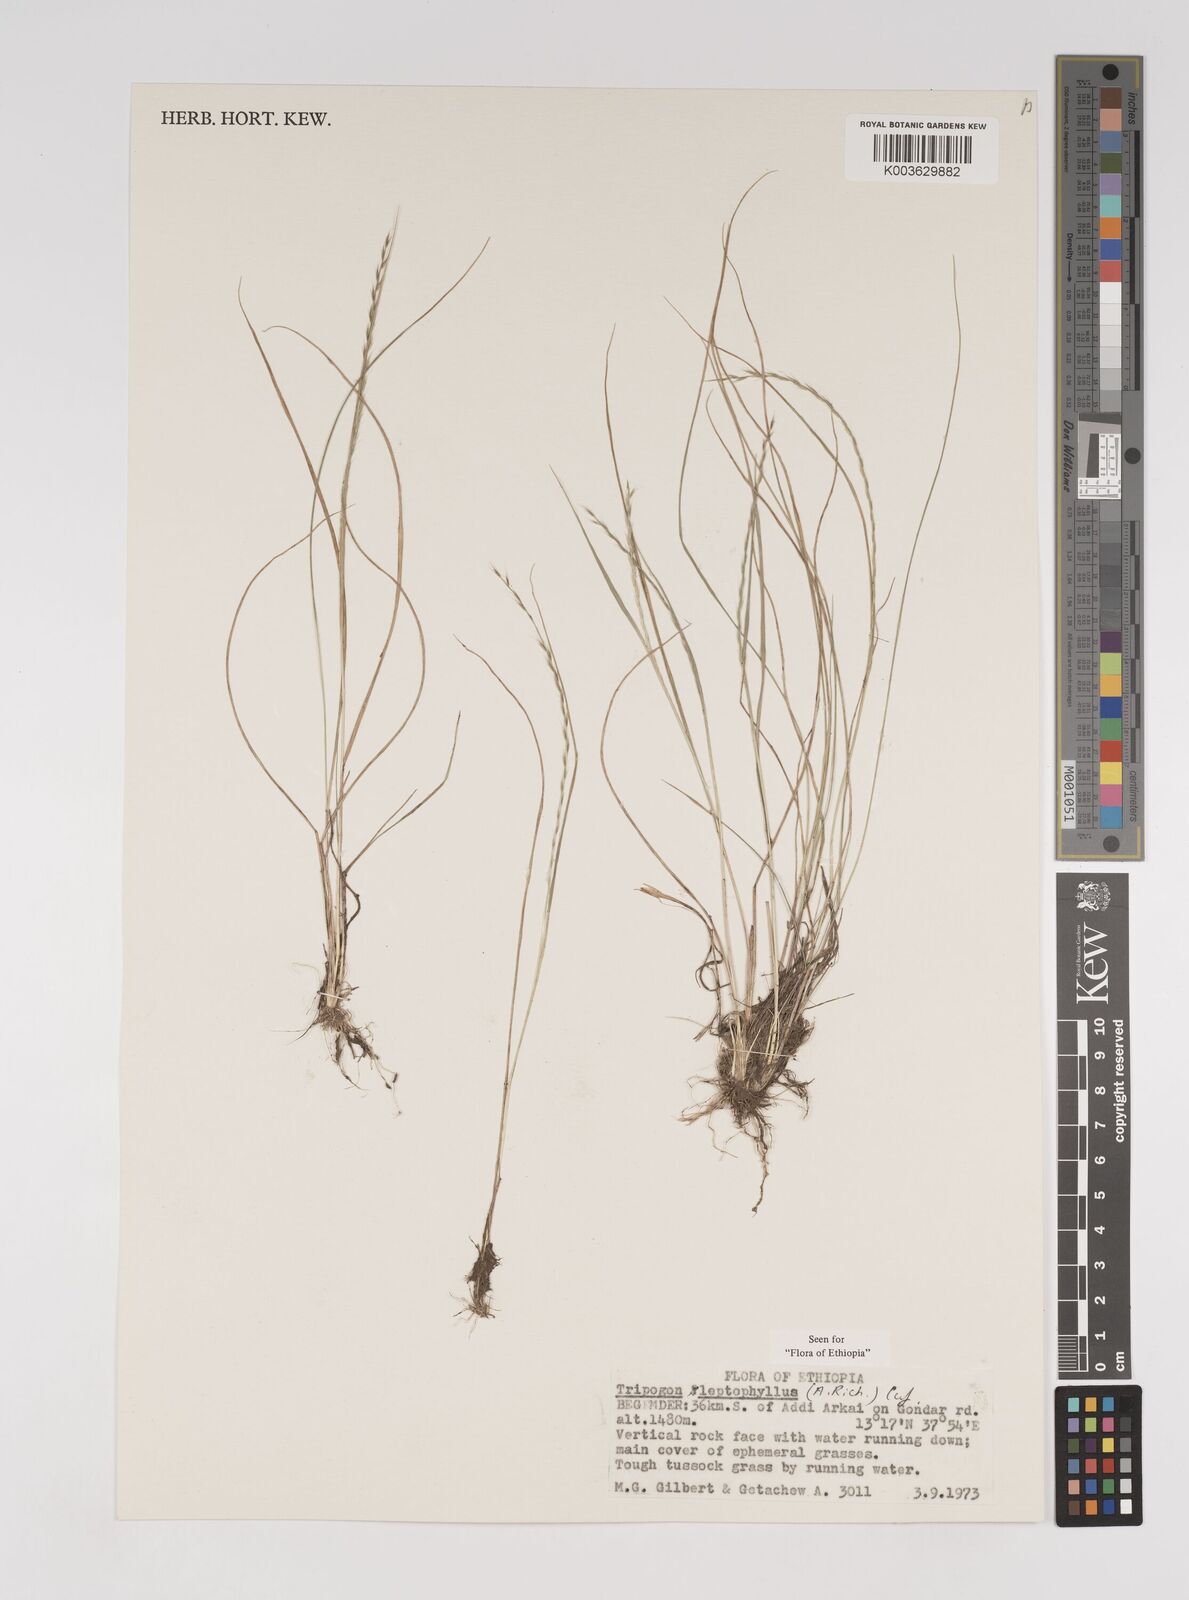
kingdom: Plantae
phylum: Tracheophyta
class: Liliopsida
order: Poales
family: Poaceae
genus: Tripogon
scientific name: Tripogon leptophyllus
